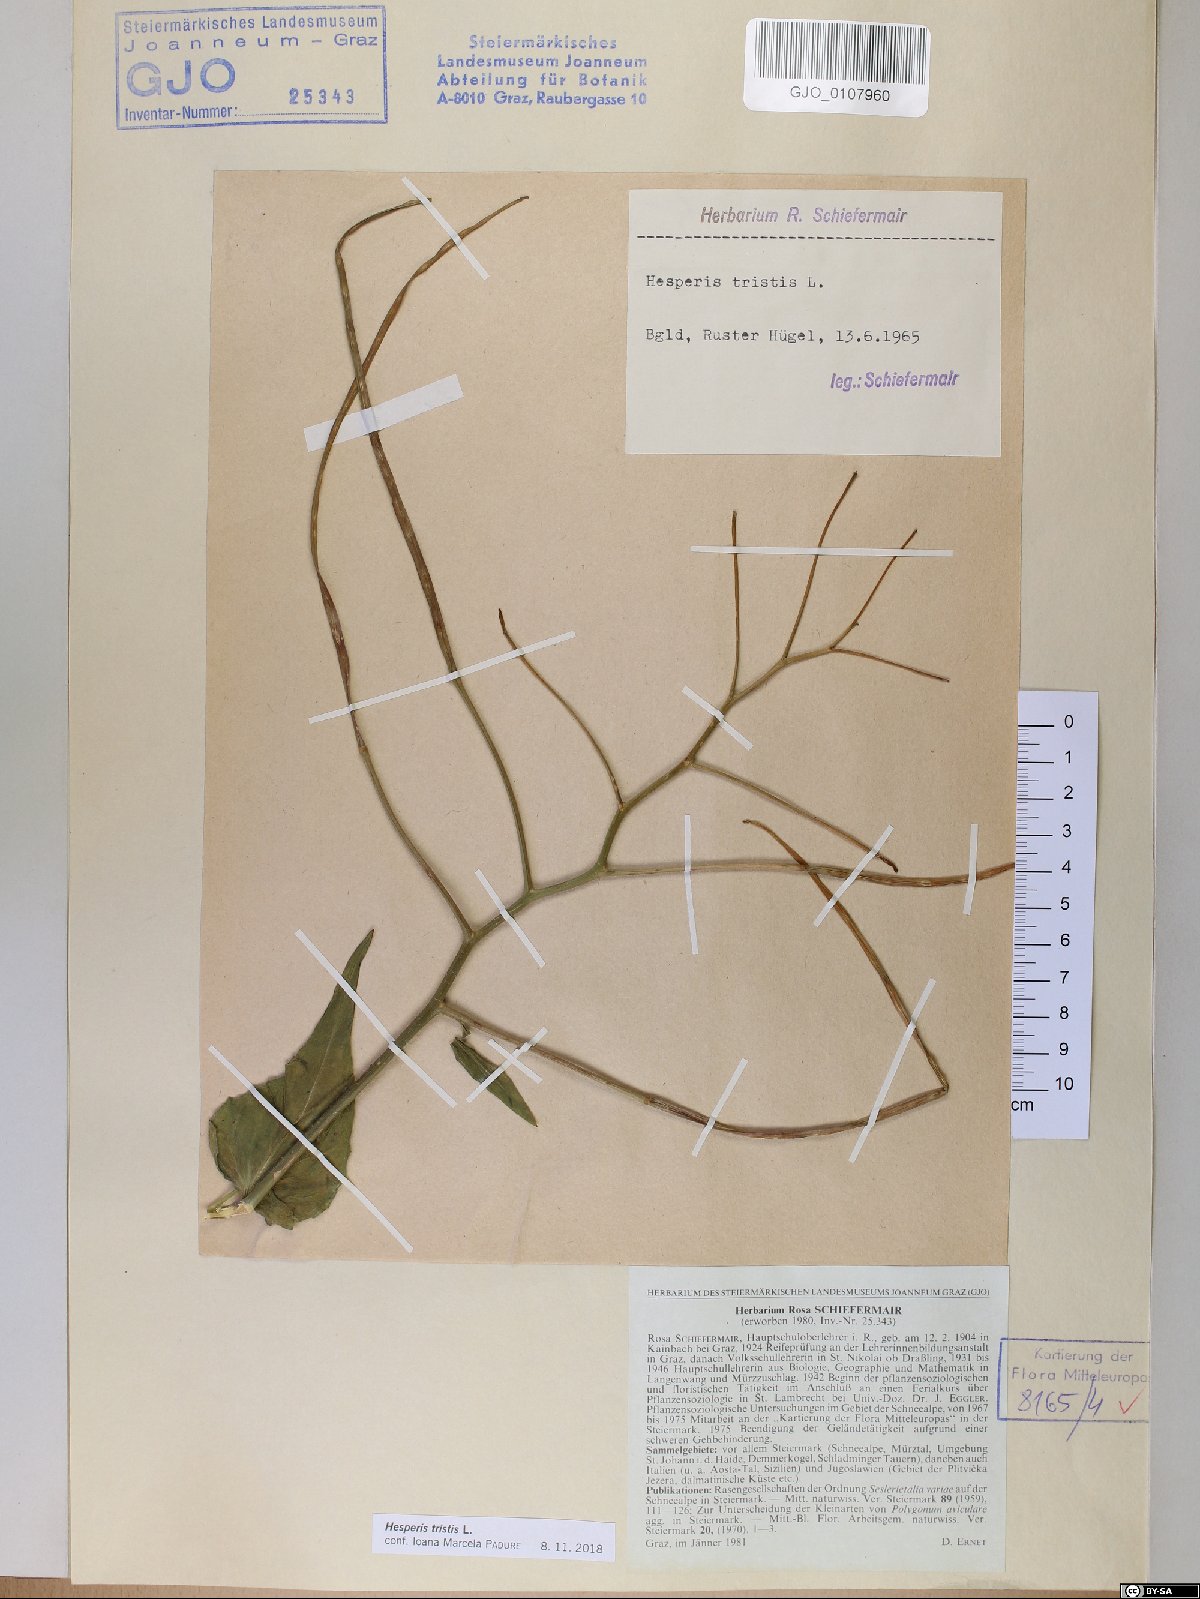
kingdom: Plantae
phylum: Tracheophyta
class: Magnoliopsida
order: Brassicales
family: Brassicaceae
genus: Hesperis
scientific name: Hesperis tristis
